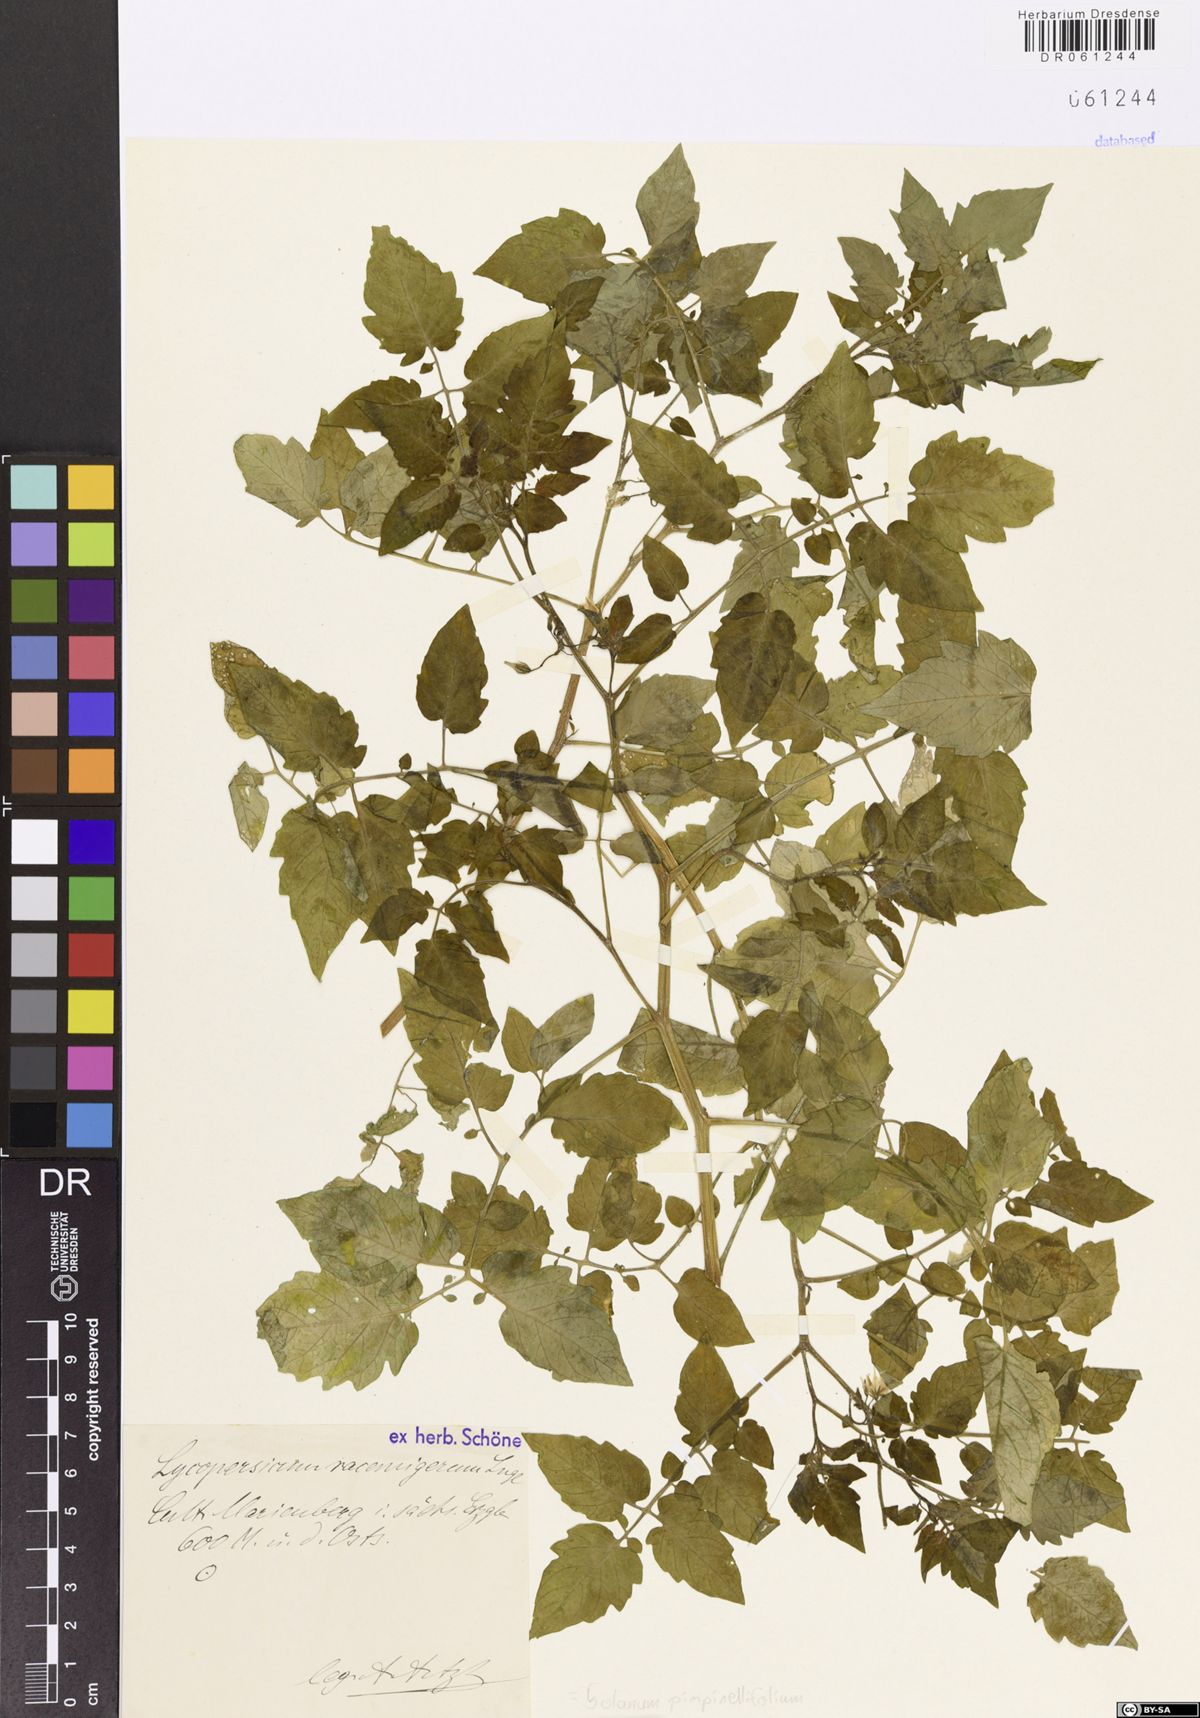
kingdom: Plantae
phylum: Tracheophyta
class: Magnoliopsida
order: Solanales
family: Solanaceae
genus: Solanum
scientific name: Solanum pimpinellifolium
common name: Currant-tomato
